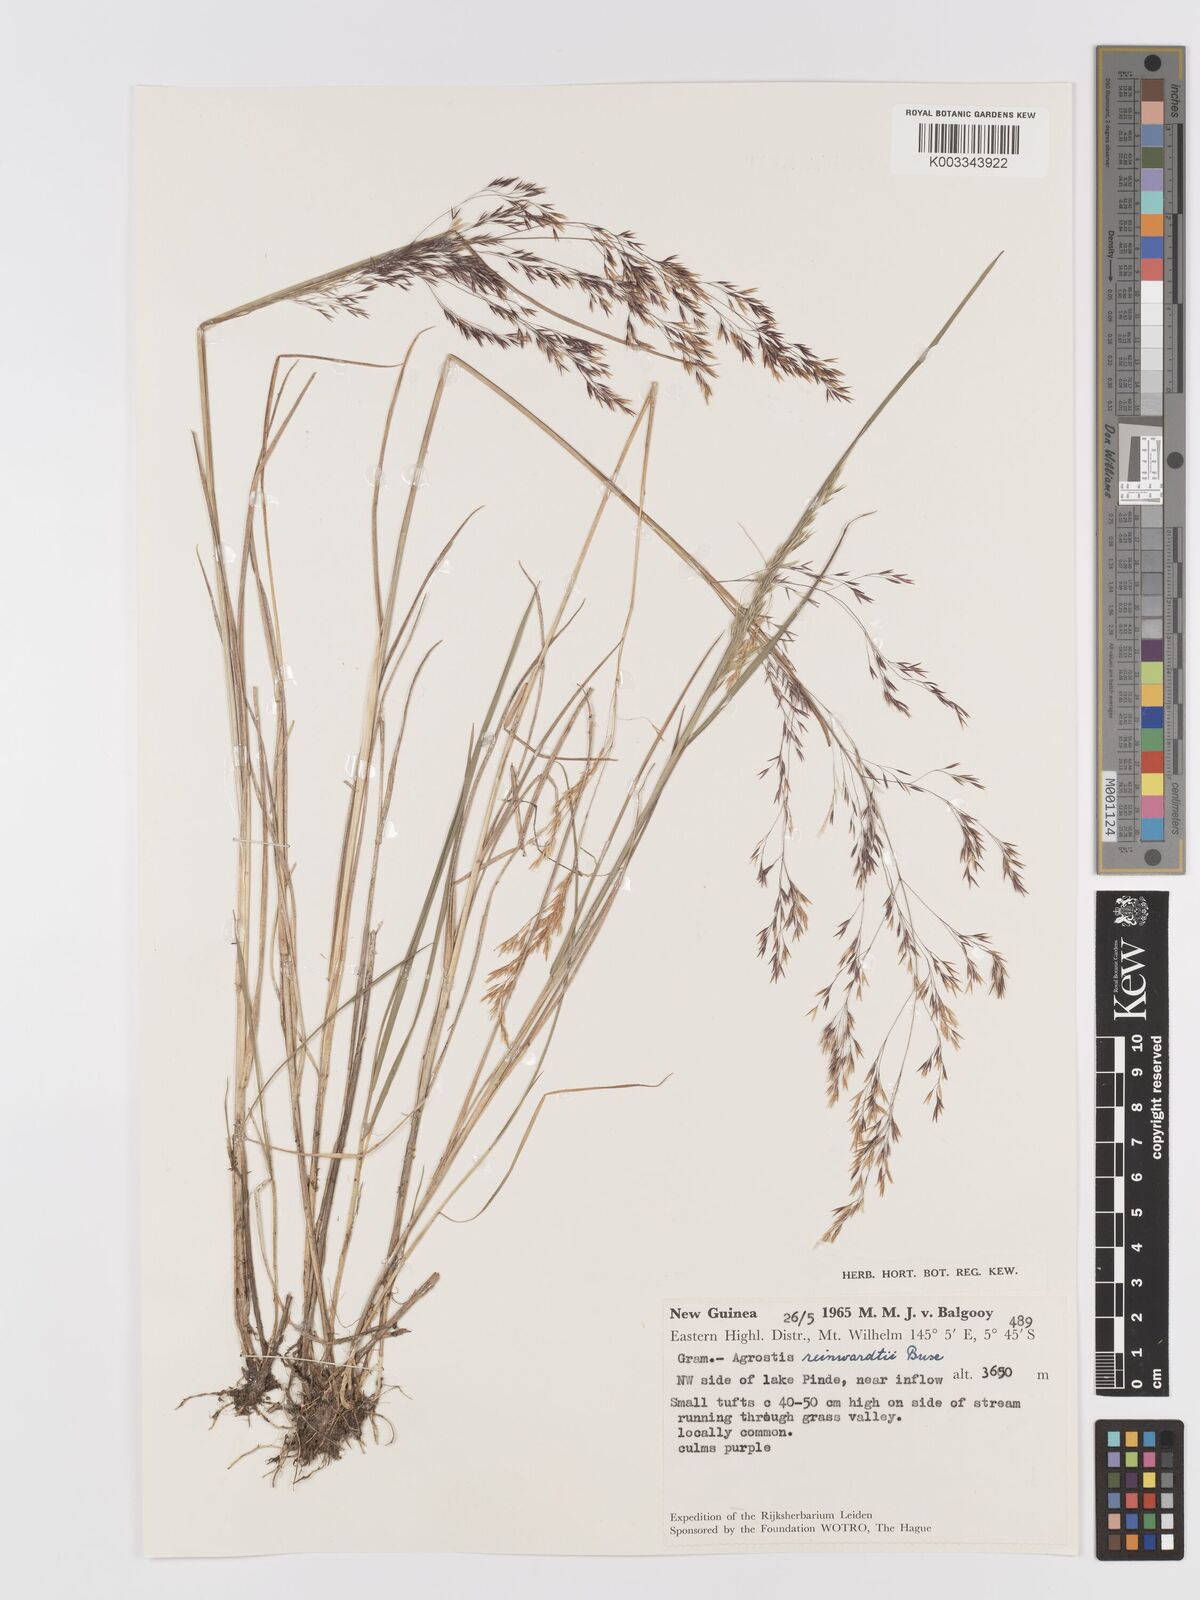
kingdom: Plantae
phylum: Tracheophyta
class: Liliopsida
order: Poales
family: Poaceae
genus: Agrostis
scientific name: Agrostis infirma
